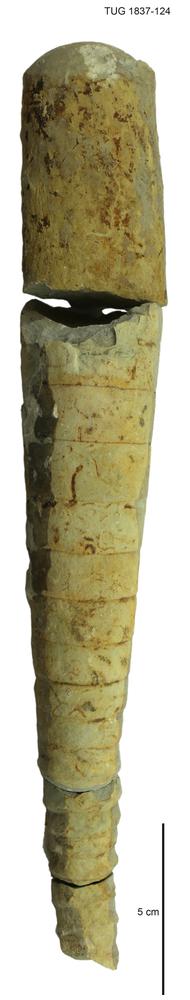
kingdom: Animalia
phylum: Mollusca
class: Cephalopoda
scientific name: Cephalopoda
